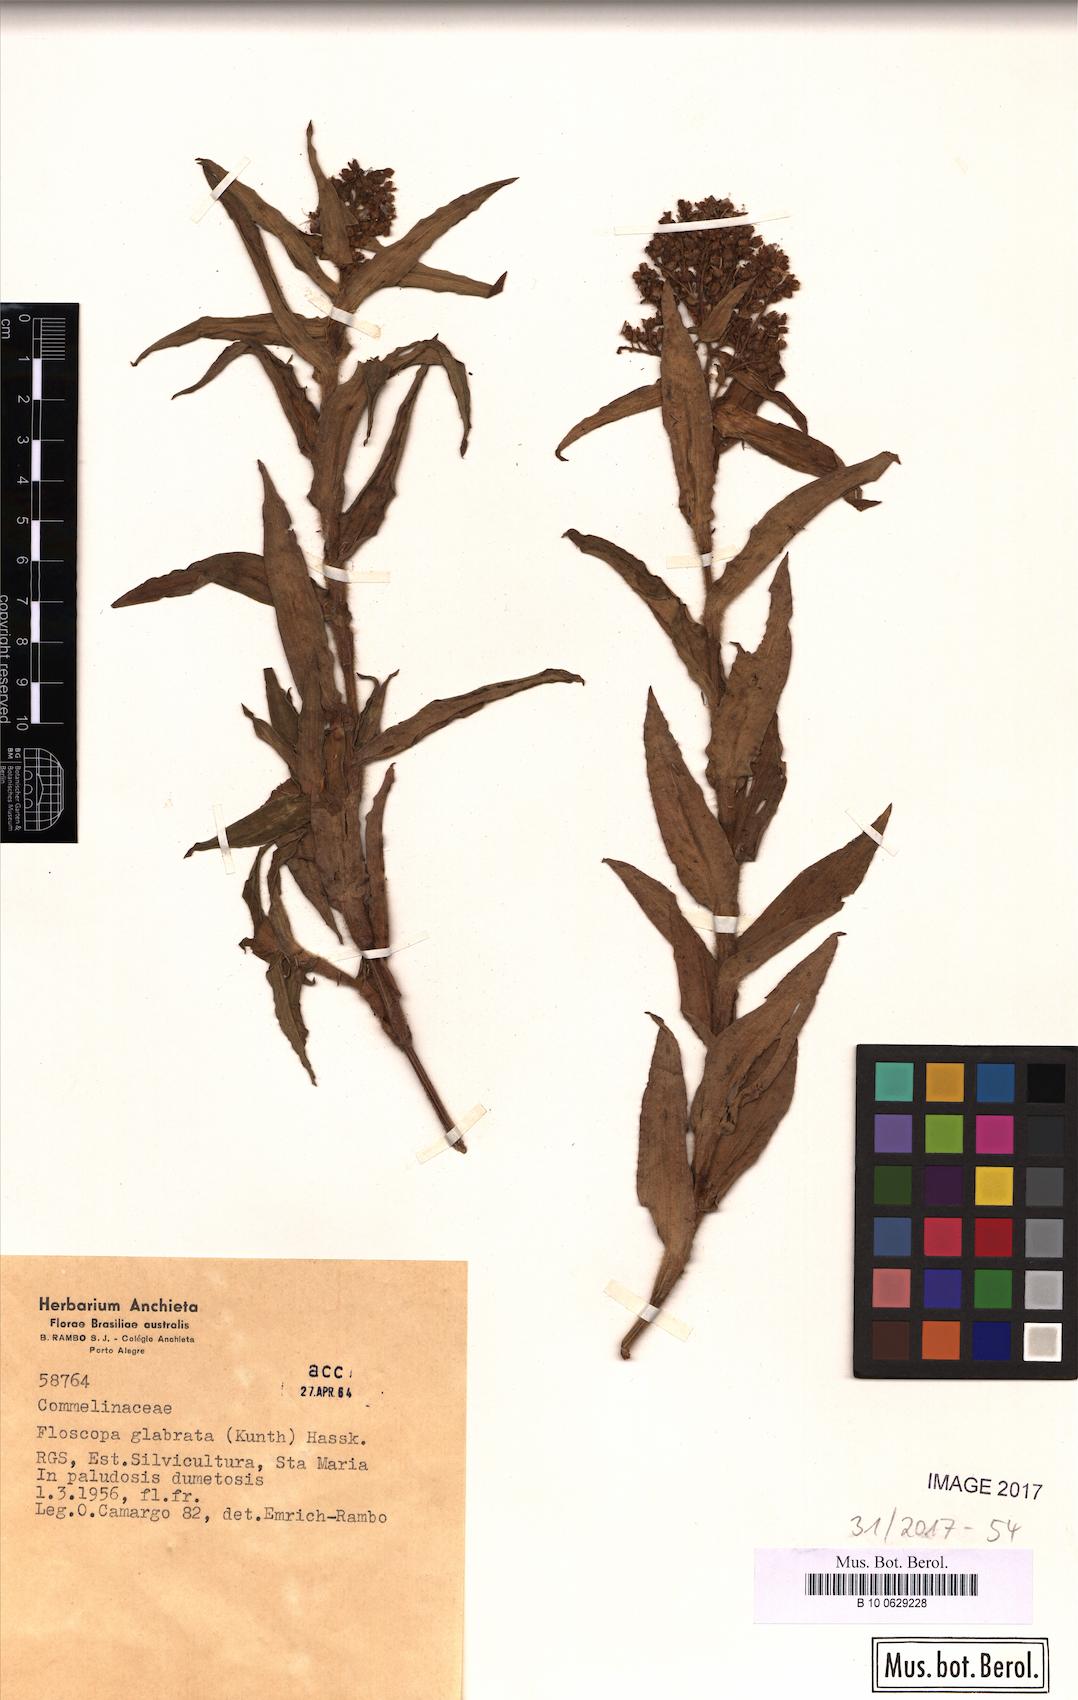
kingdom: Plantae
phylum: Tracheophyta
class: Liliopsida
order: Commelinales
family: Commelinaceae
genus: Floscopa
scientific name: Floscopa glabrata
